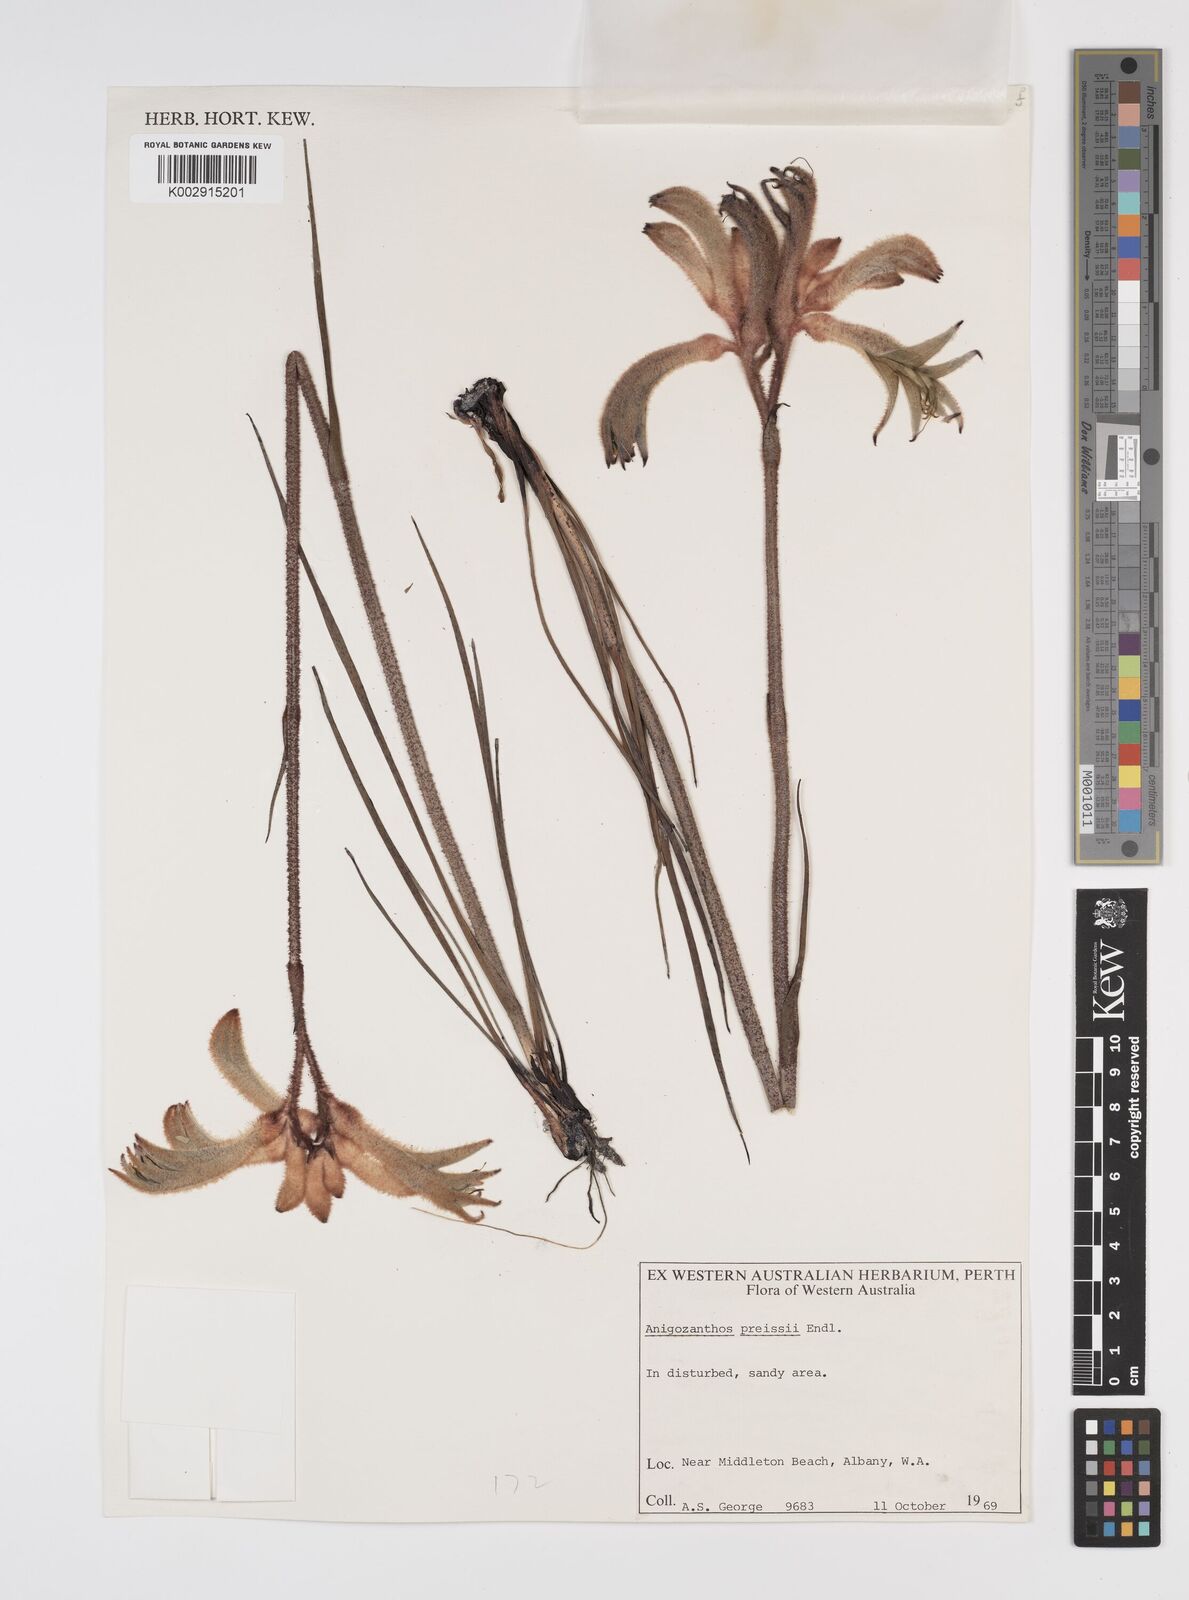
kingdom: Plantae
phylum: Tracheophyta
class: Liliopsida
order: Commelinales
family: Haemodoraceae
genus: Anigozanthos
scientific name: Anigozanthos preissii
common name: Albany cat's-paw
